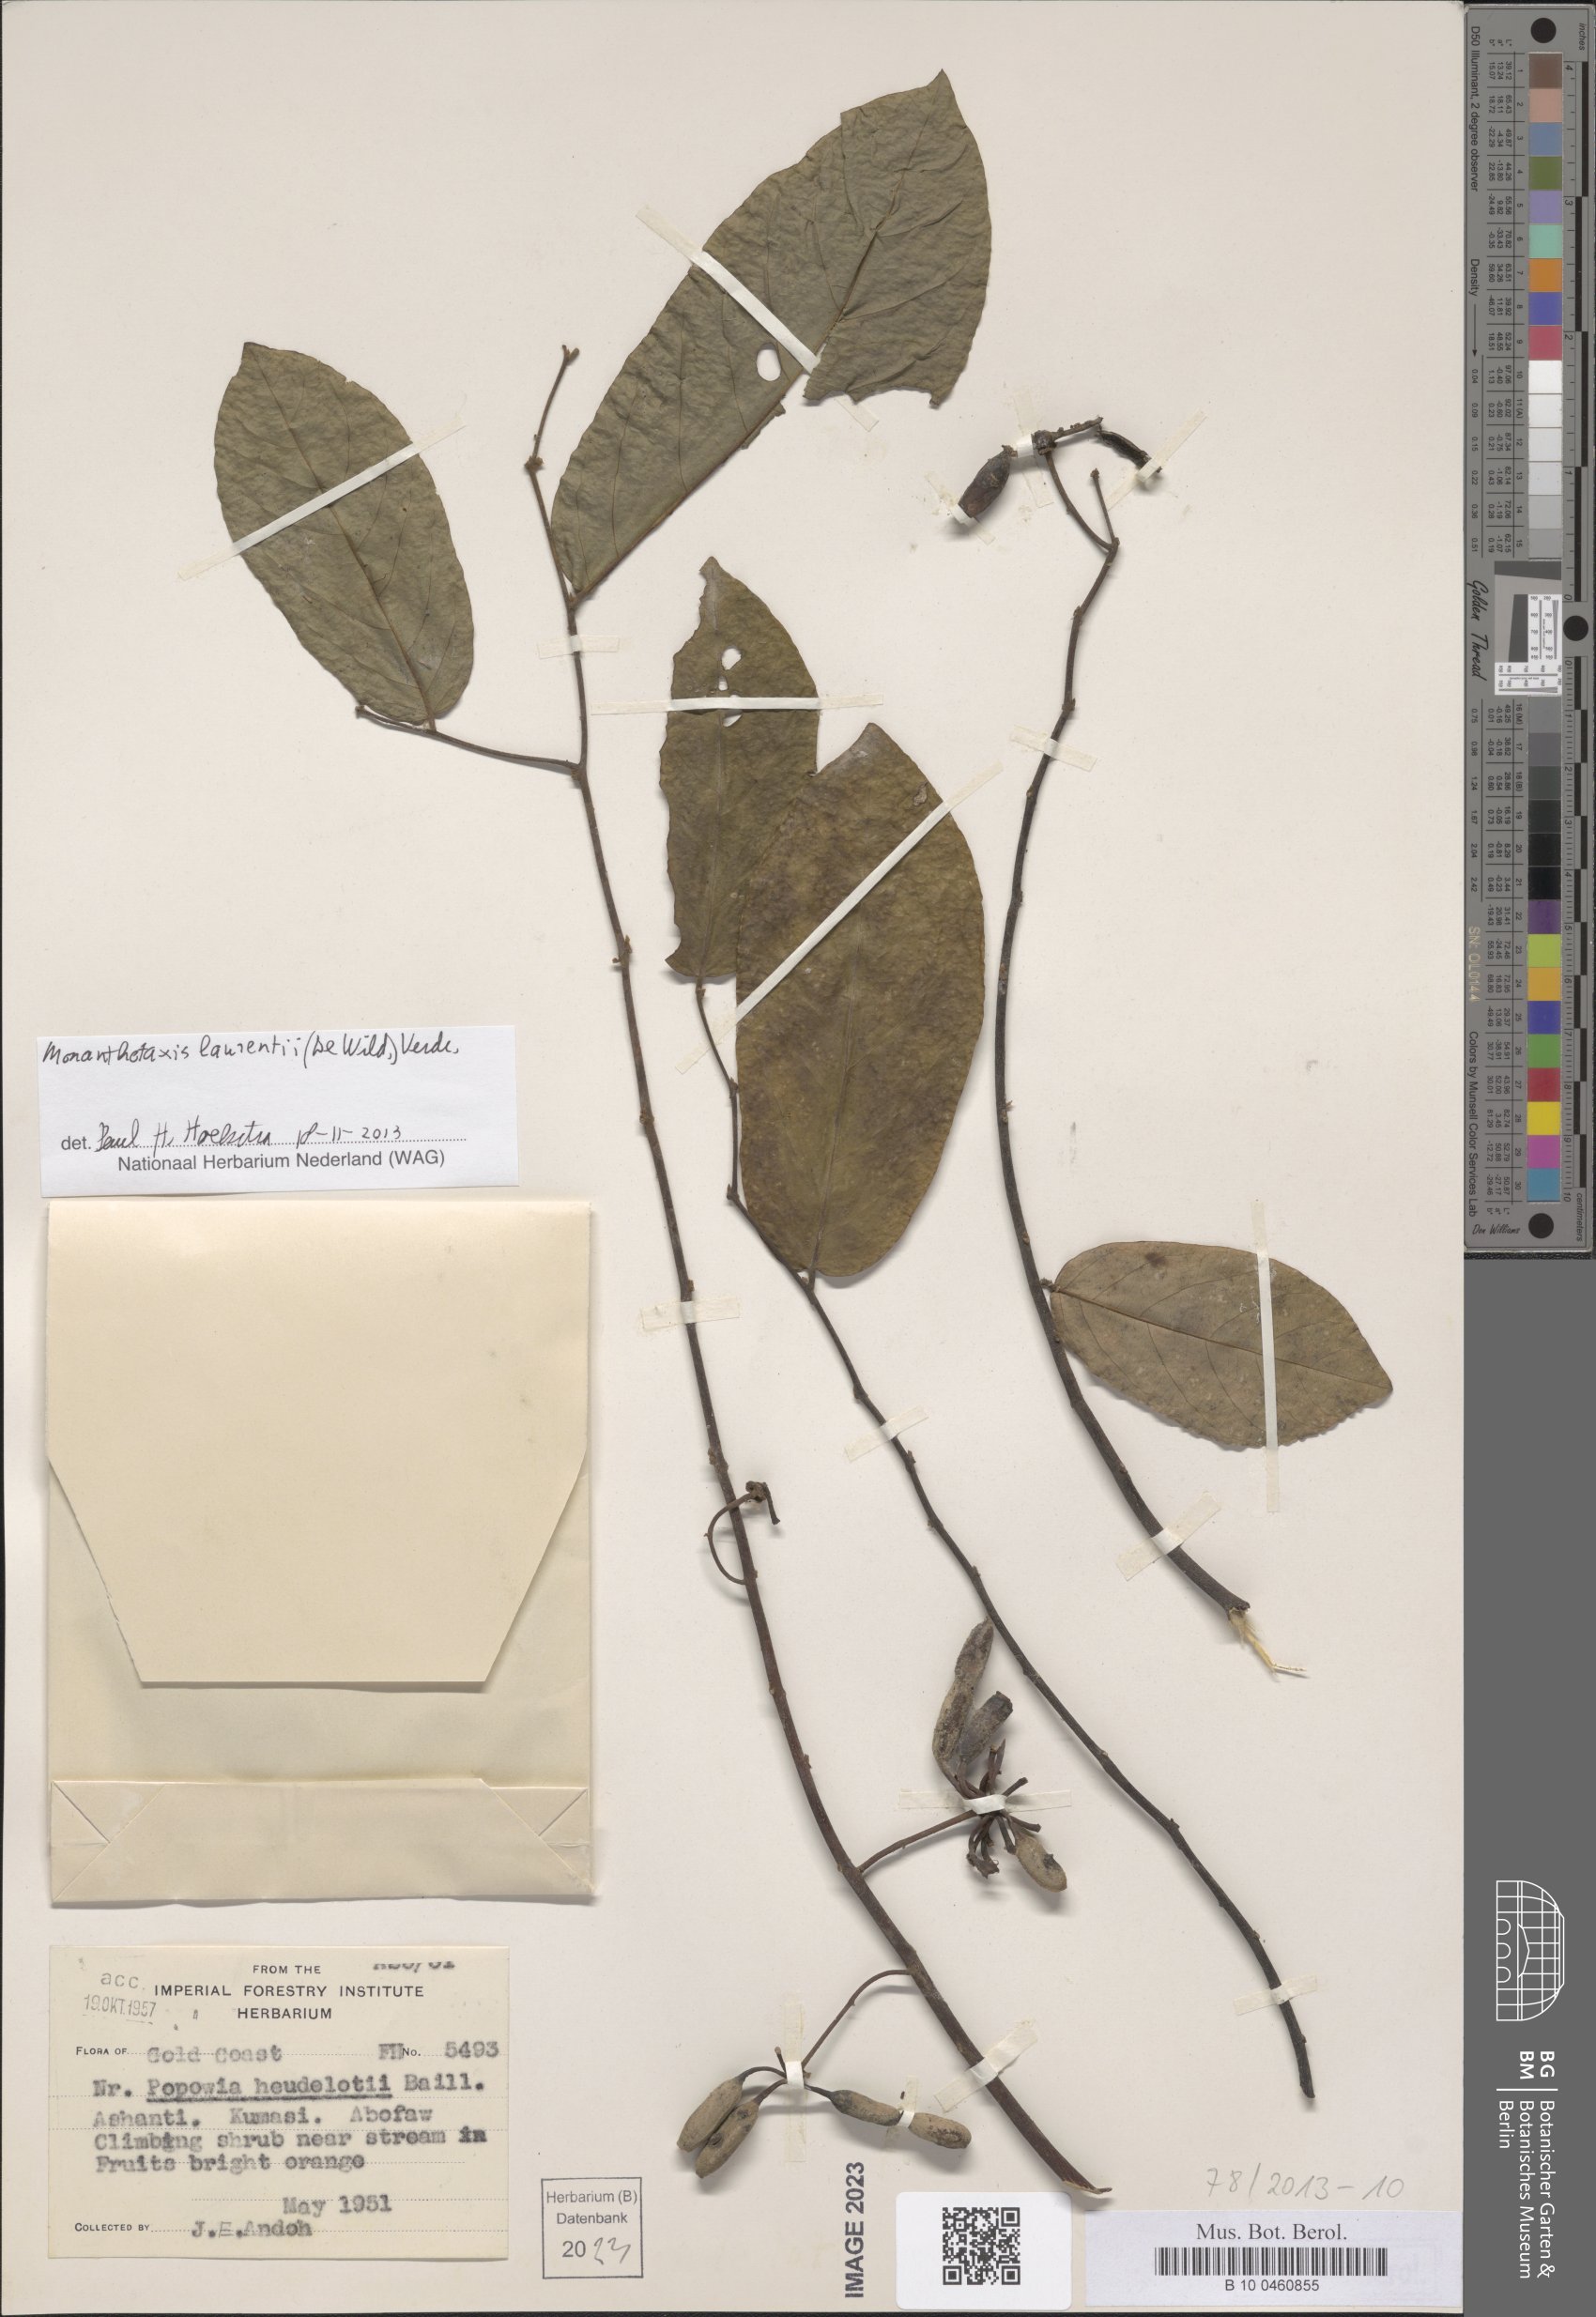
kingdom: Plantae
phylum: Tracheophyta
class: Magnoliopsida
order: Magnoliales
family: Annonaceae
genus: Monanthotaxis
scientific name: Monanthotaxis laurentii
